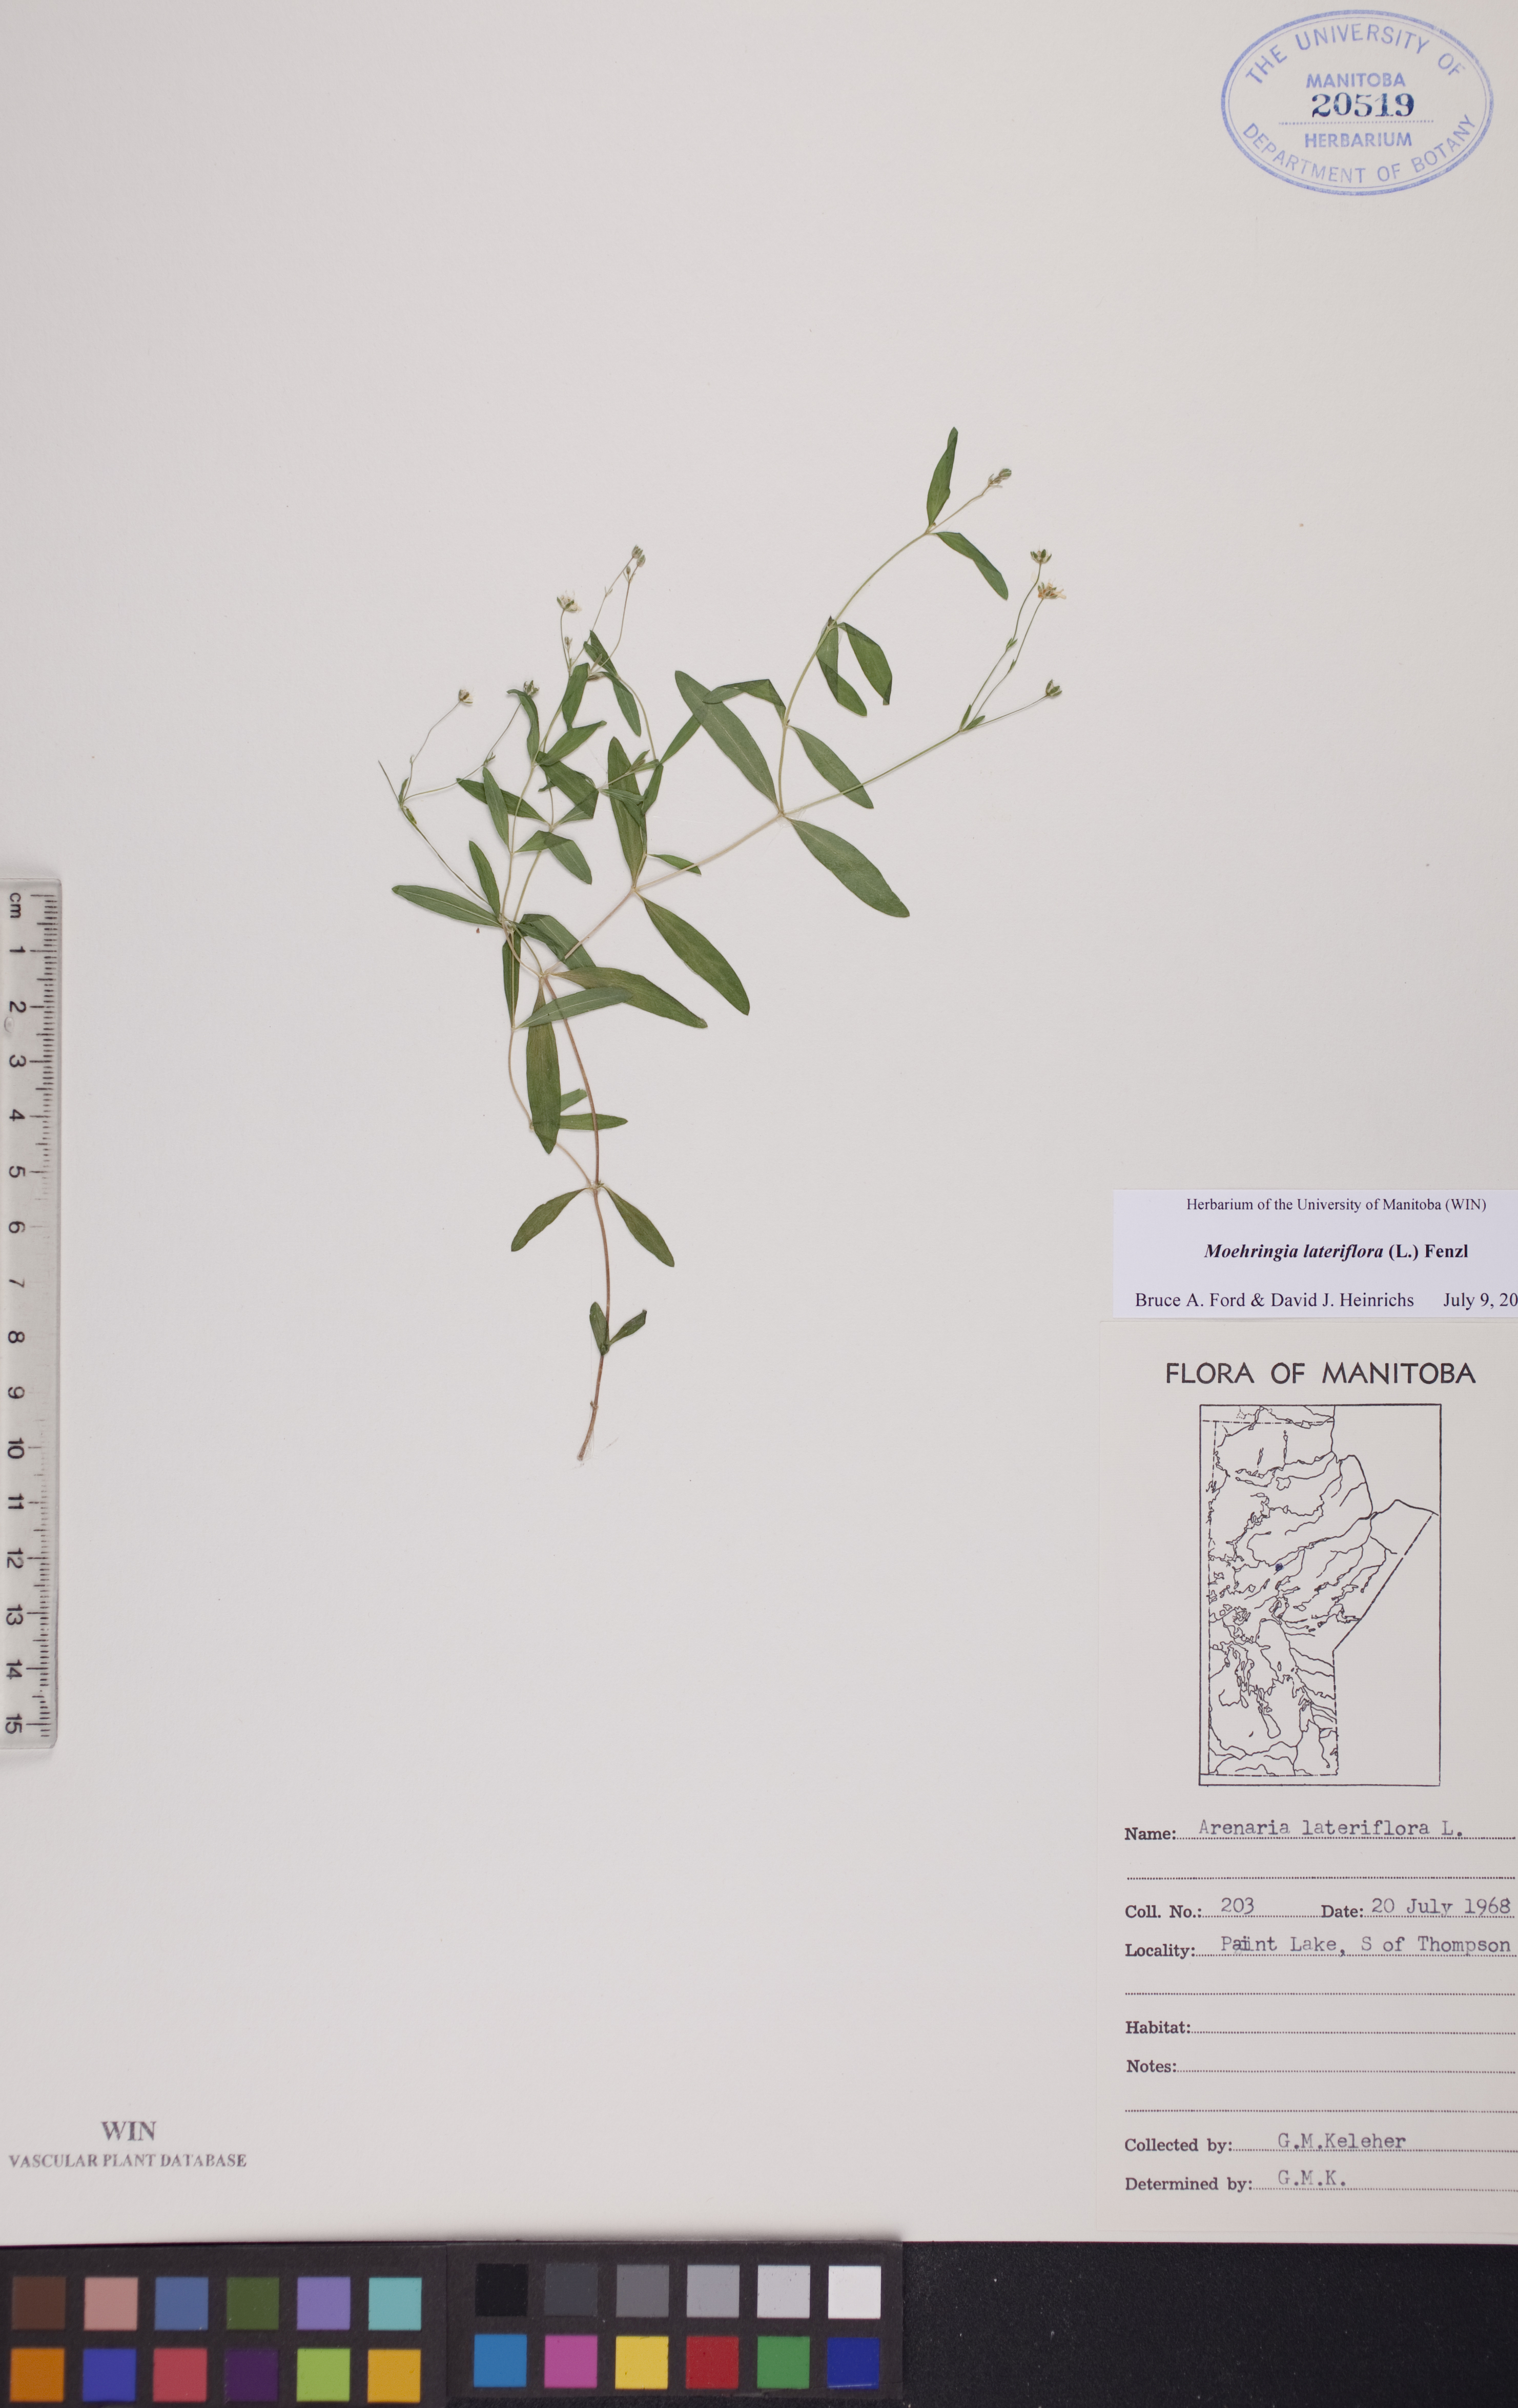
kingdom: Plantae
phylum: Tracheophyta
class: Magnoliopsida
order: Caryophyllales
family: Caryophyllaceae
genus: Moehringia
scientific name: Moehringia lateriflora
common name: Blunt-leaved sandwort
